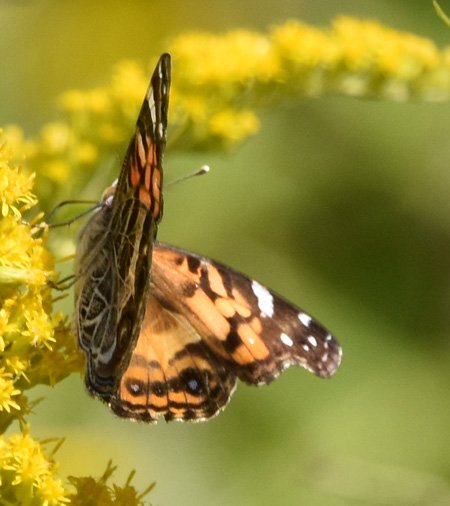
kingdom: Animalia
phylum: Arthropoda
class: Insecta
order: Lepidoptera
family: Nymphalidae
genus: Vanessa
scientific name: Vanessa virginiensis
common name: American Lady
